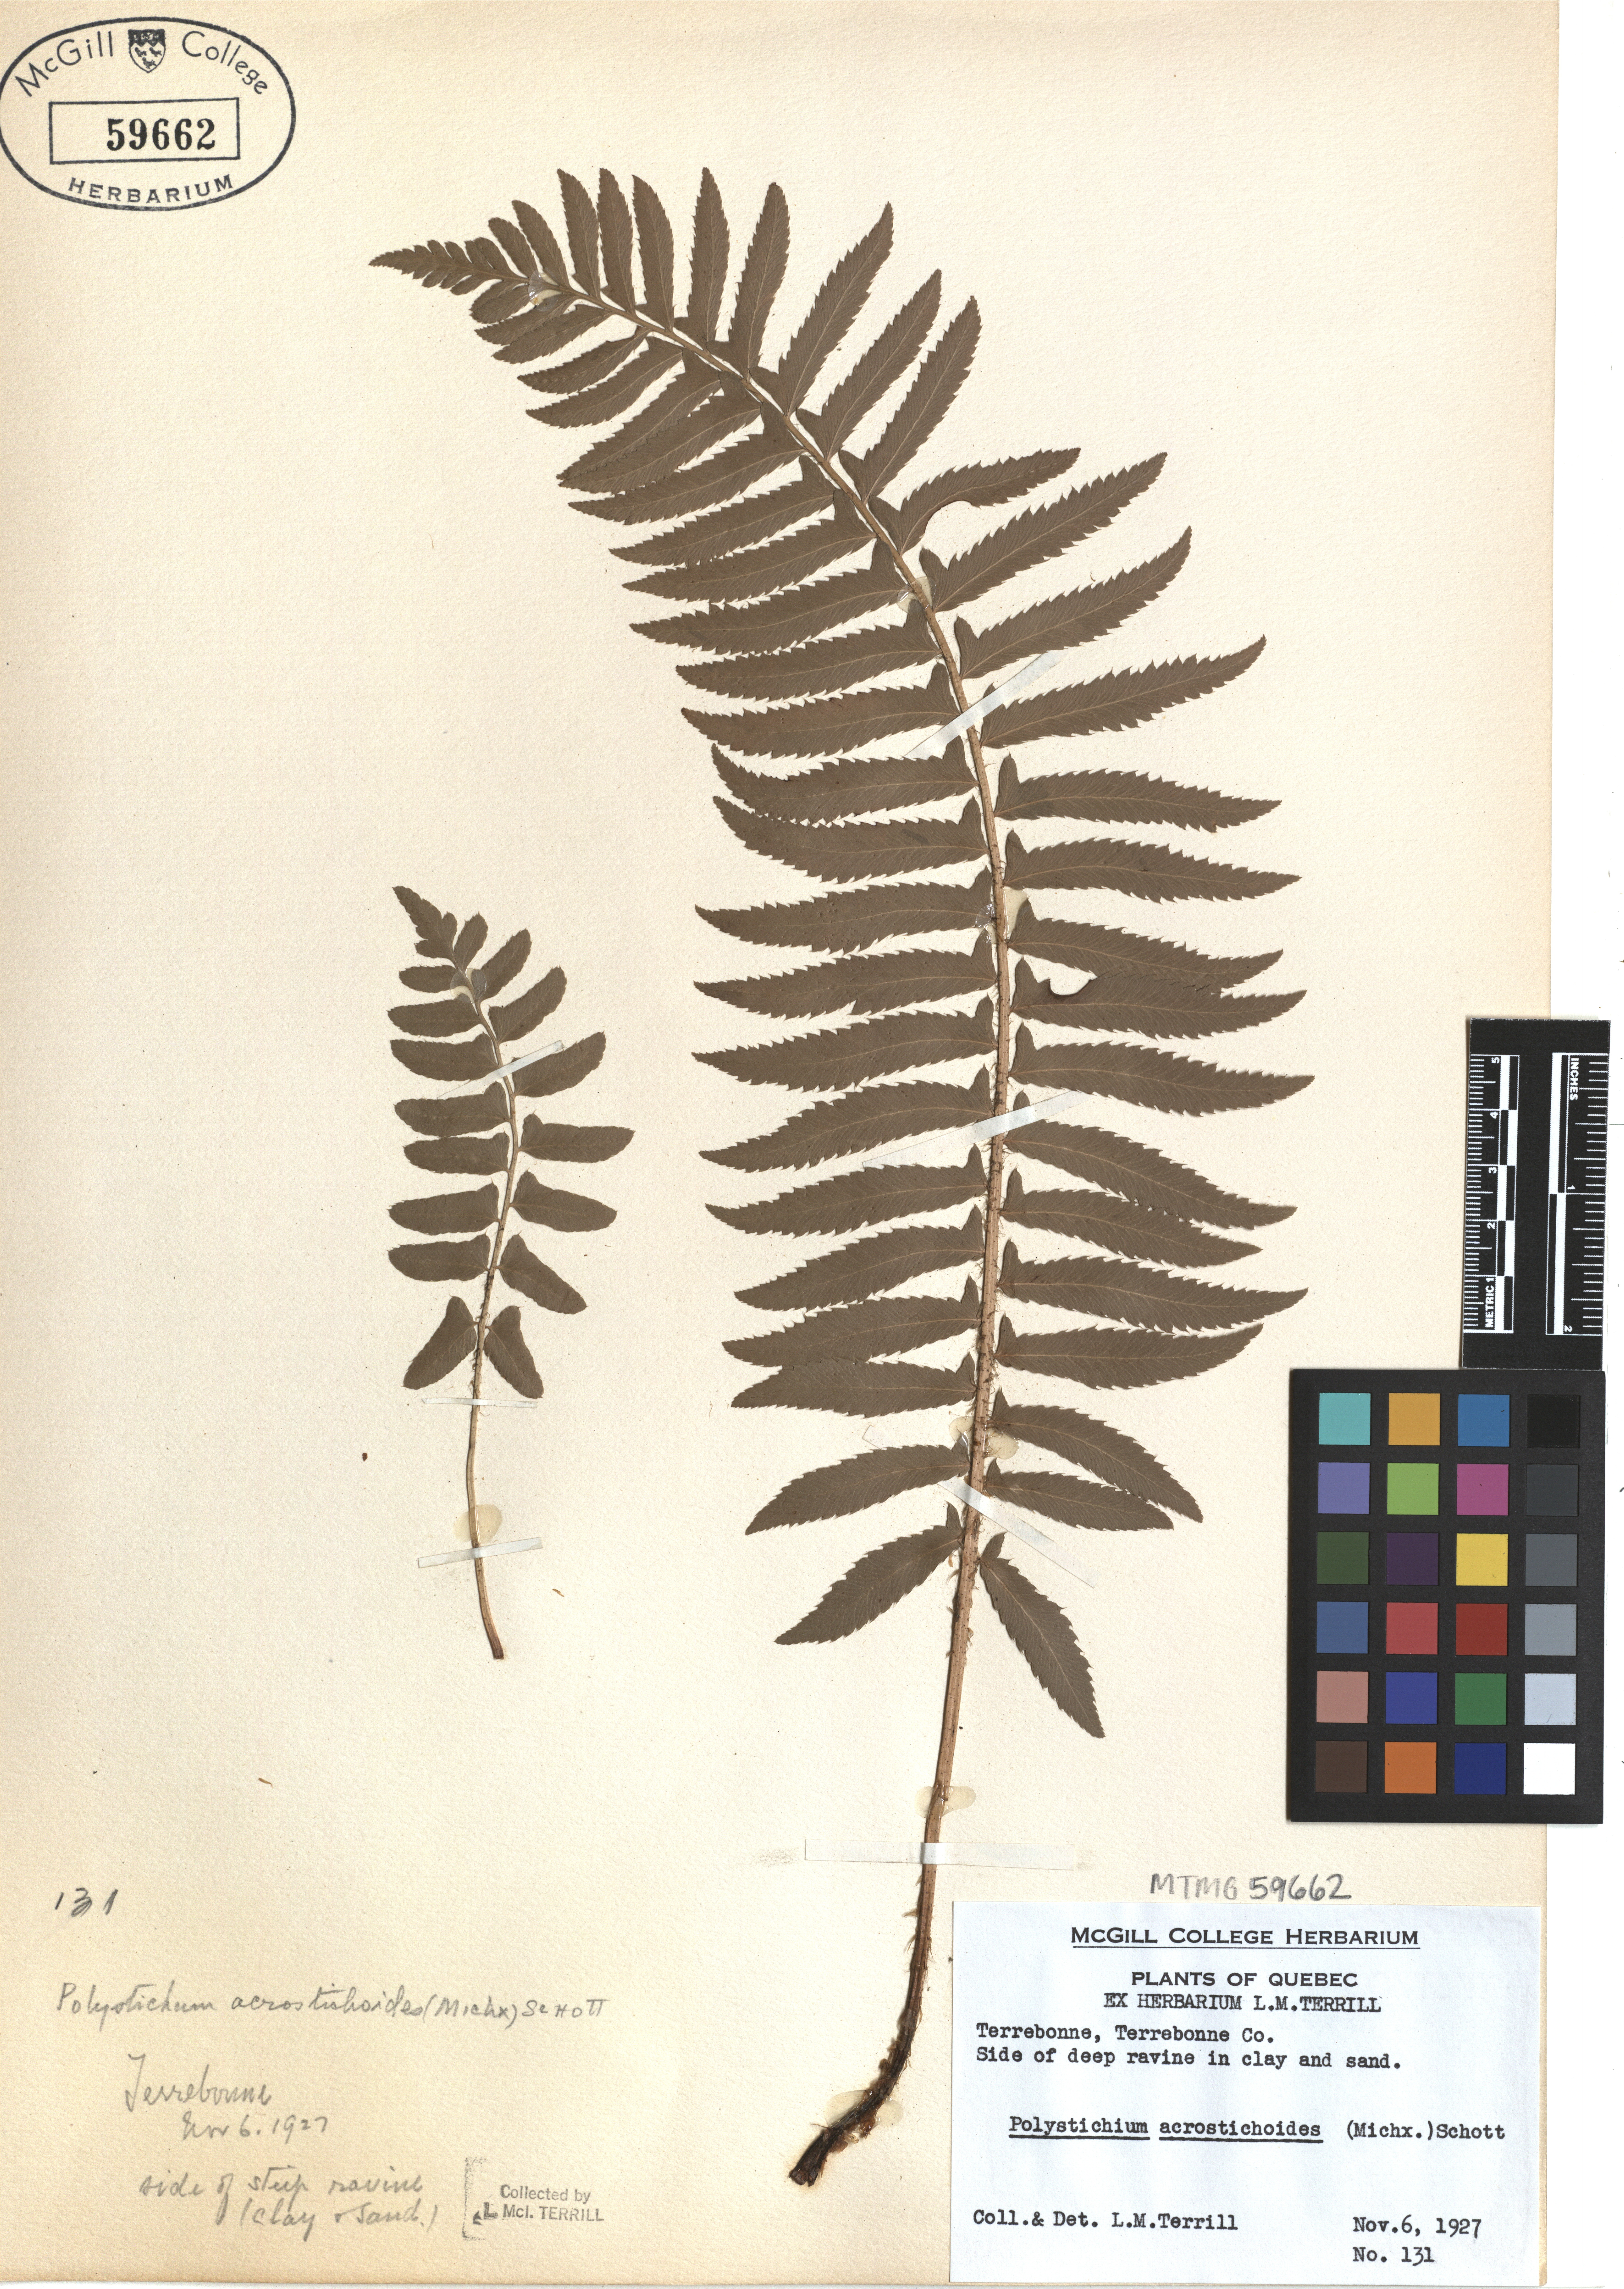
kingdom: Plantae
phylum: Tracheophyta
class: Polypodiopsida
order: Polypodiales
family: Dryopteridaceae
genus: Polystichum
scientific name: Polystichum acrostichoides
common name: Christmas fern
